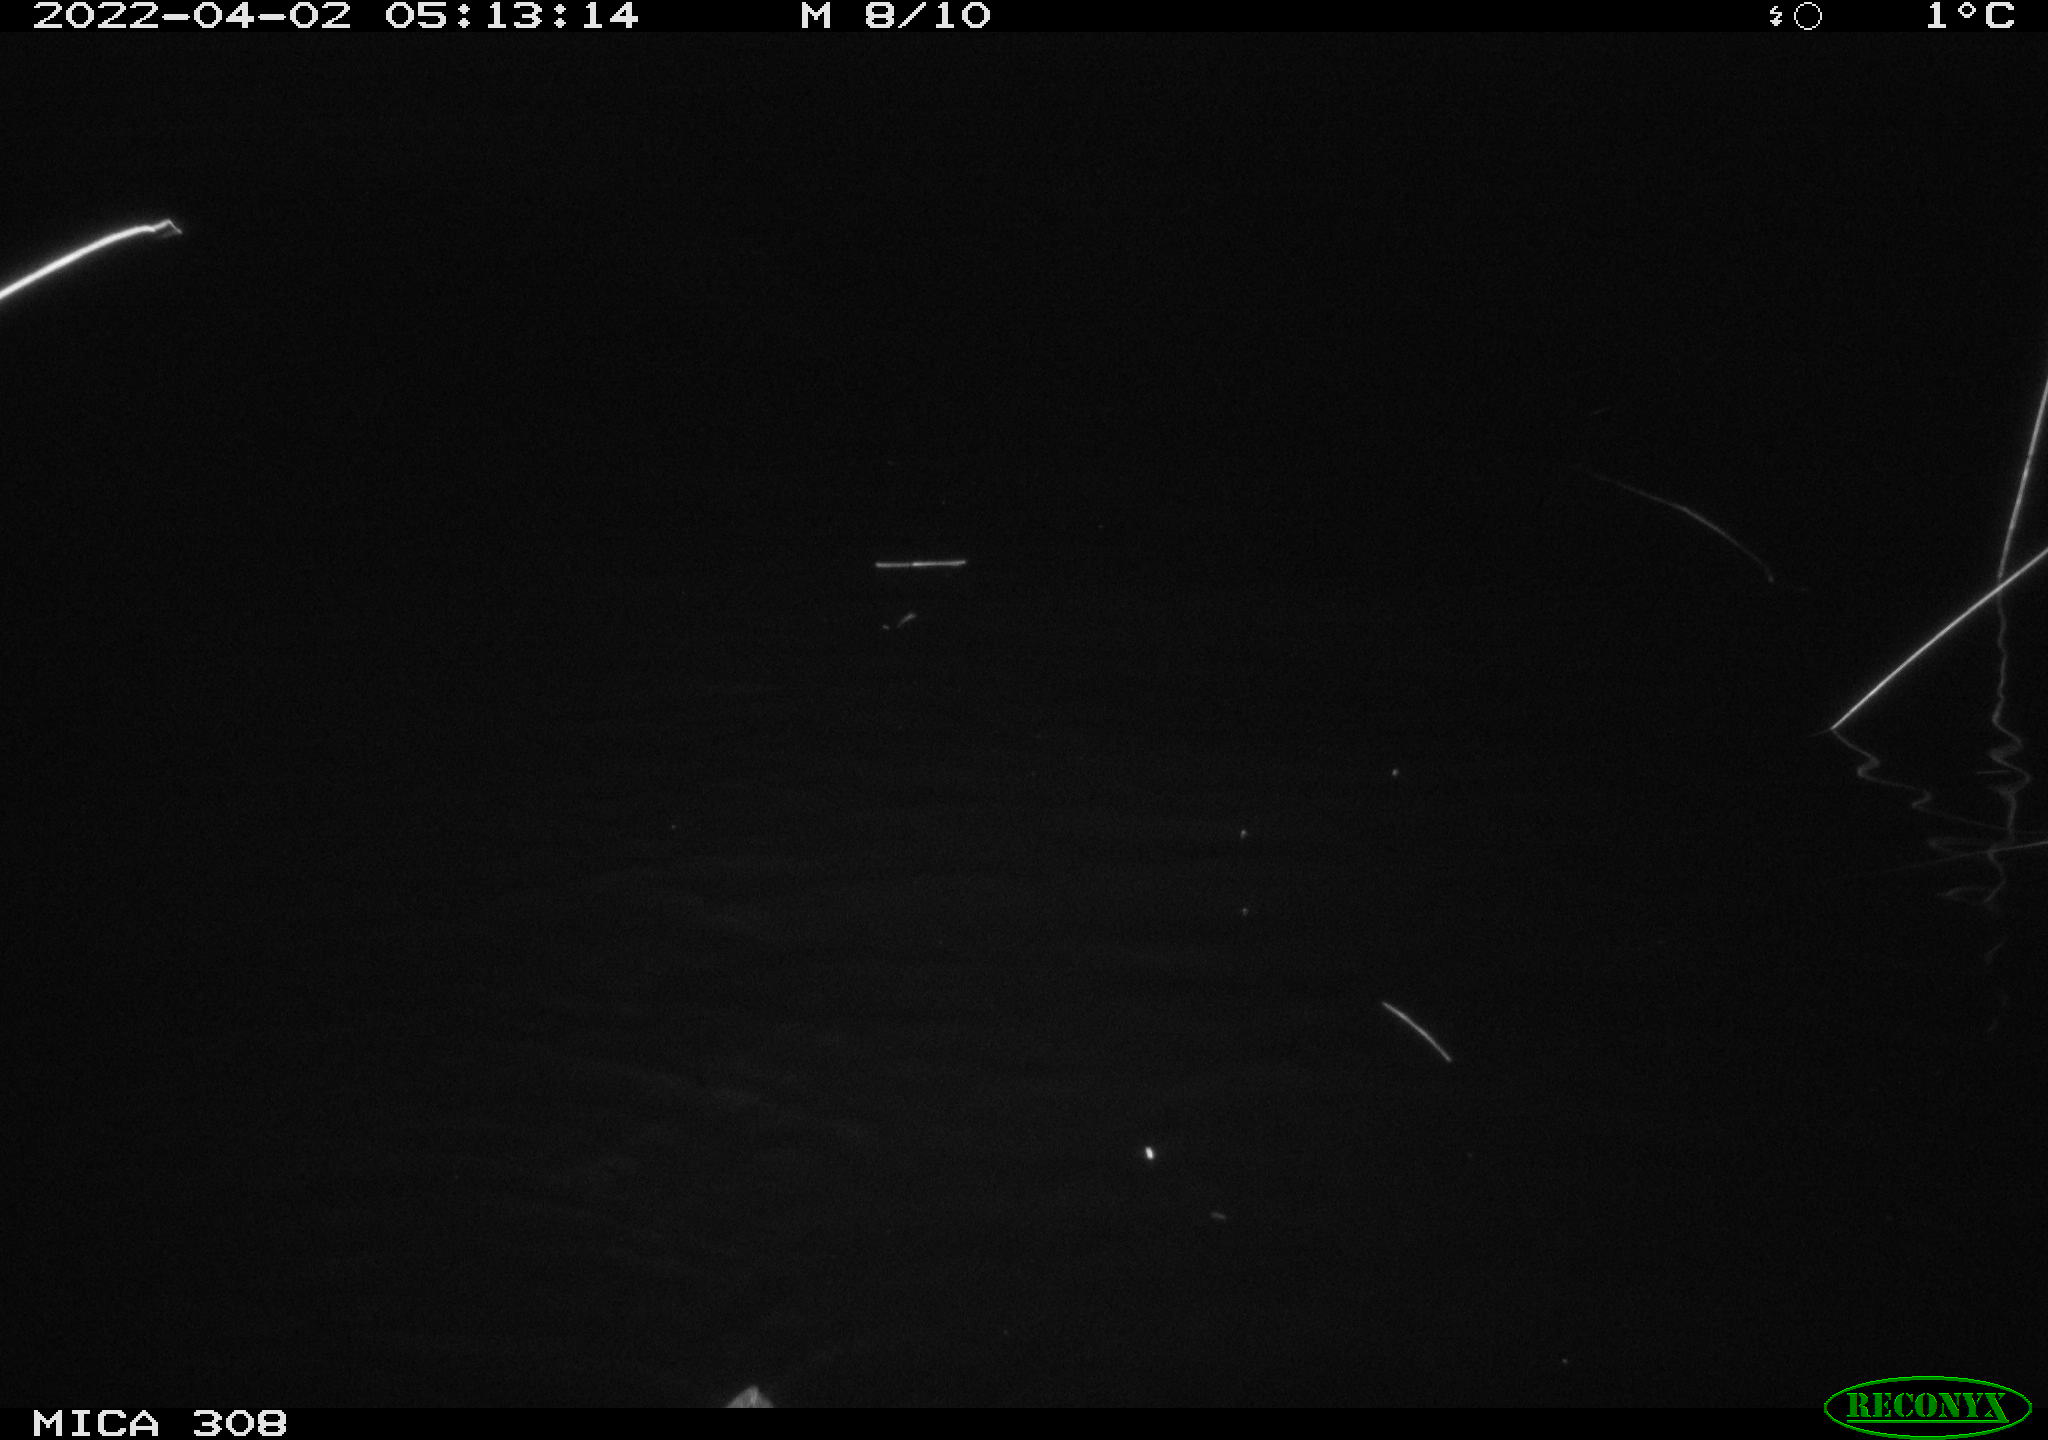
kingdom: Animalia
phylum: Chordata
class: Aves
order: Anseriformes
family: Anatidae
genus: Anas
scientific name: Anas platyrhynchos
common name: Mallard
